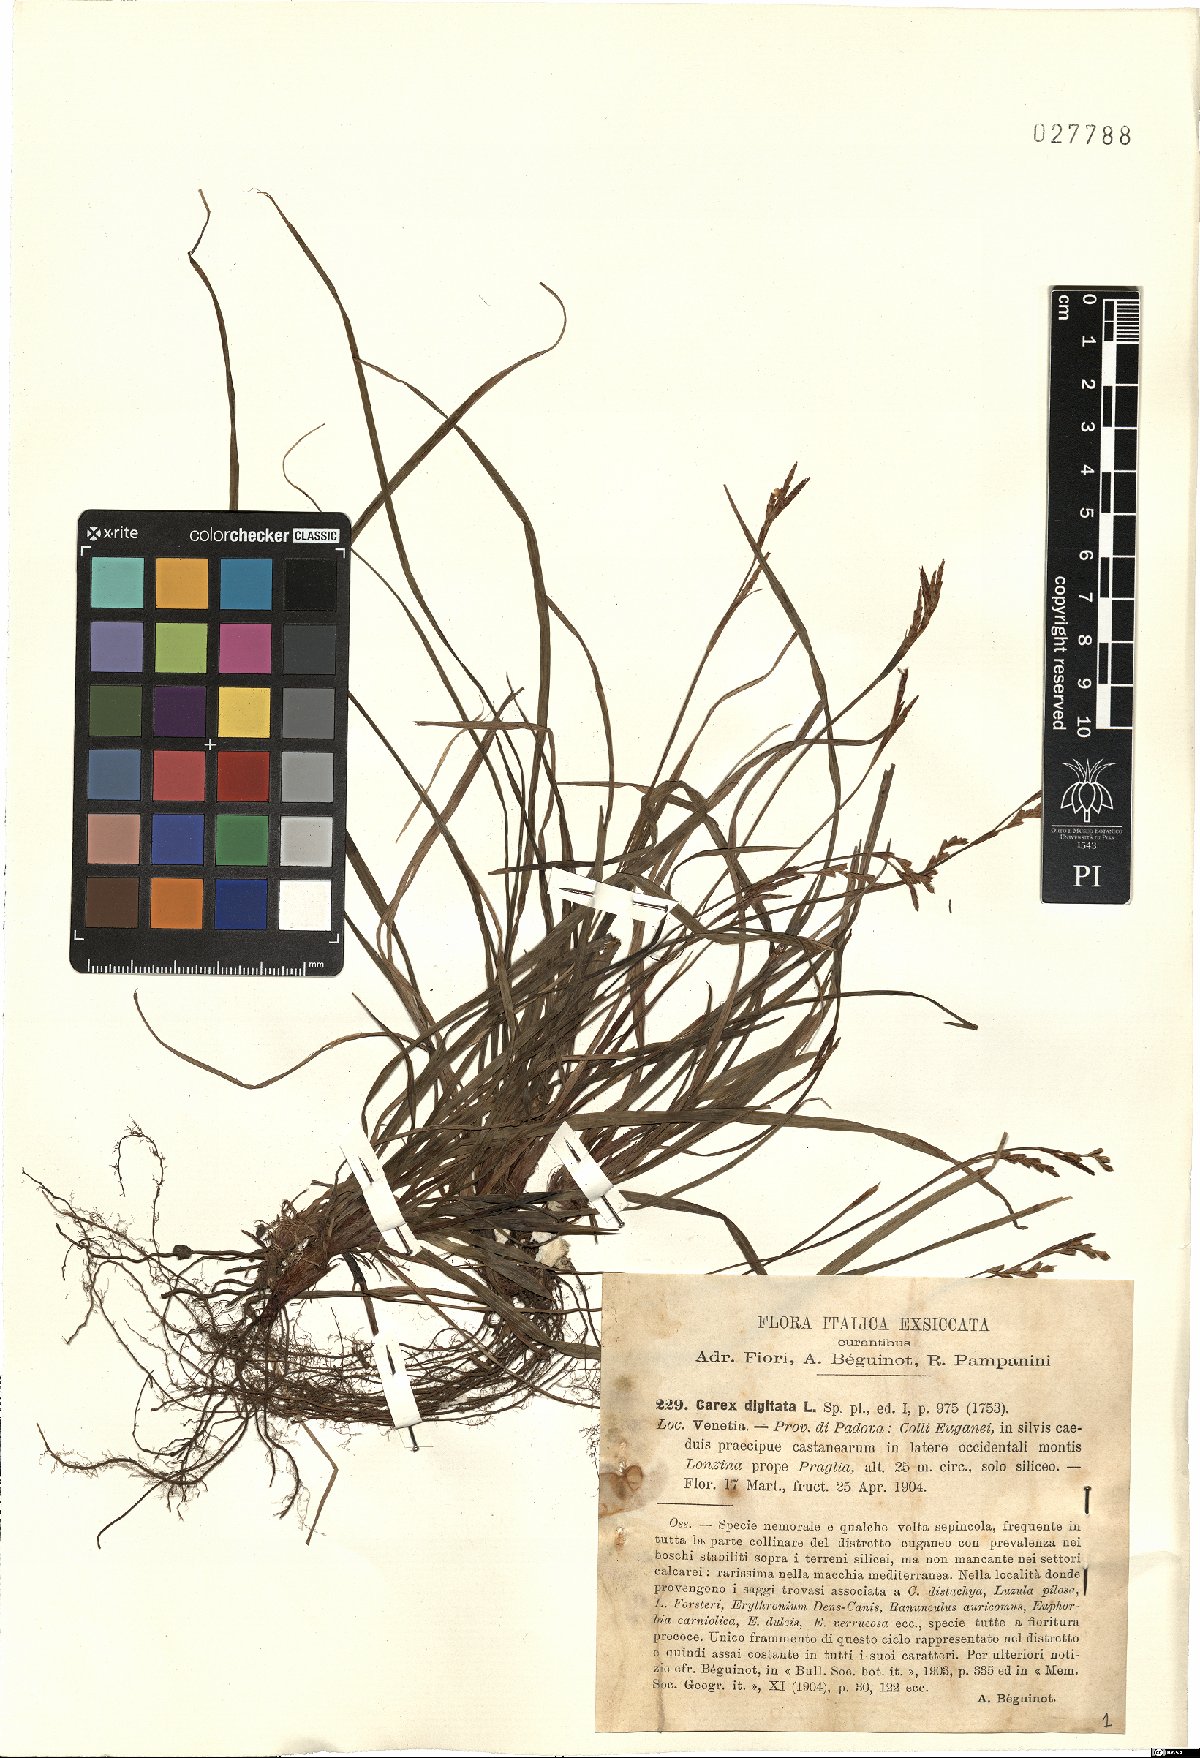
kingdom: Plantae
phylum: Tracheophyta
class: Liliopsida
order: Poales
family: Cyperaceae
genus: Carex
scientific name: Carex digitata
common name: Fingered sedge
